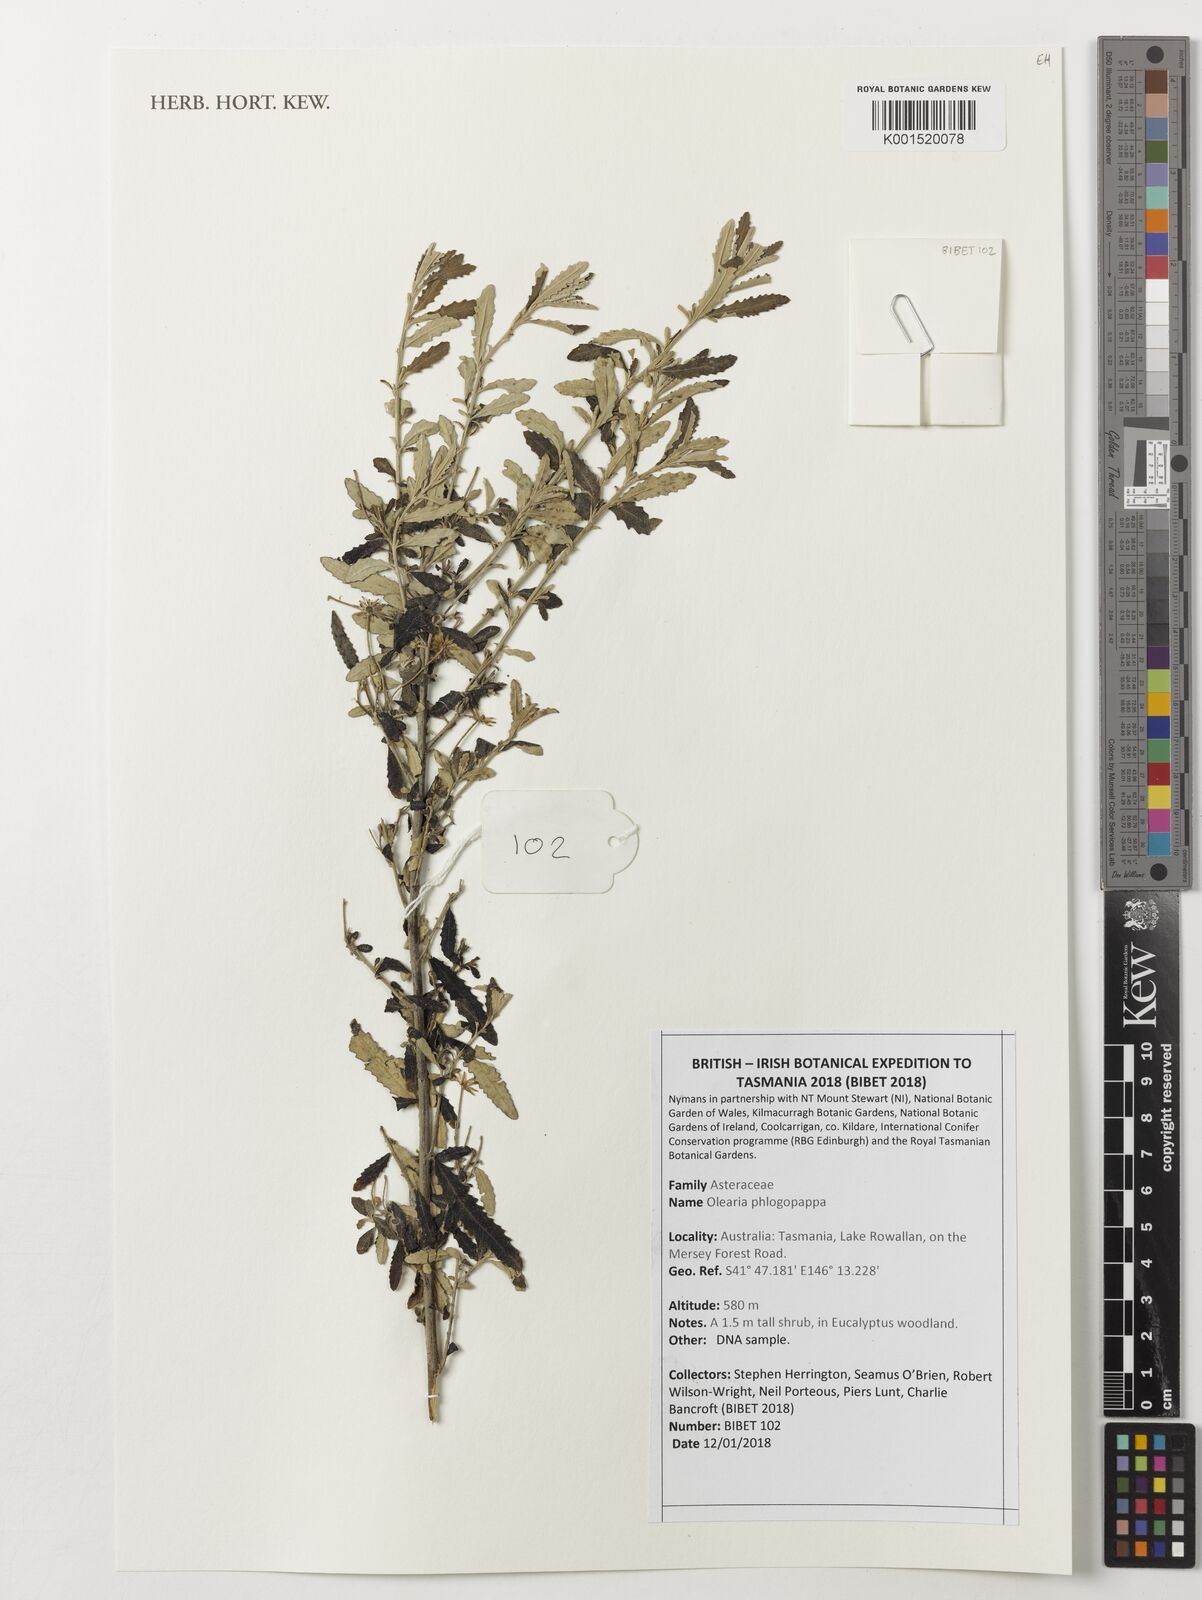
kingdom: Plantae
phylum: Tracheophyta
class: Magnoliopsida
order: Asterales
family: Asteraceae
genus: Olearia
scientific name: Olearia phlogopappa
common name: Alpine daisybush
